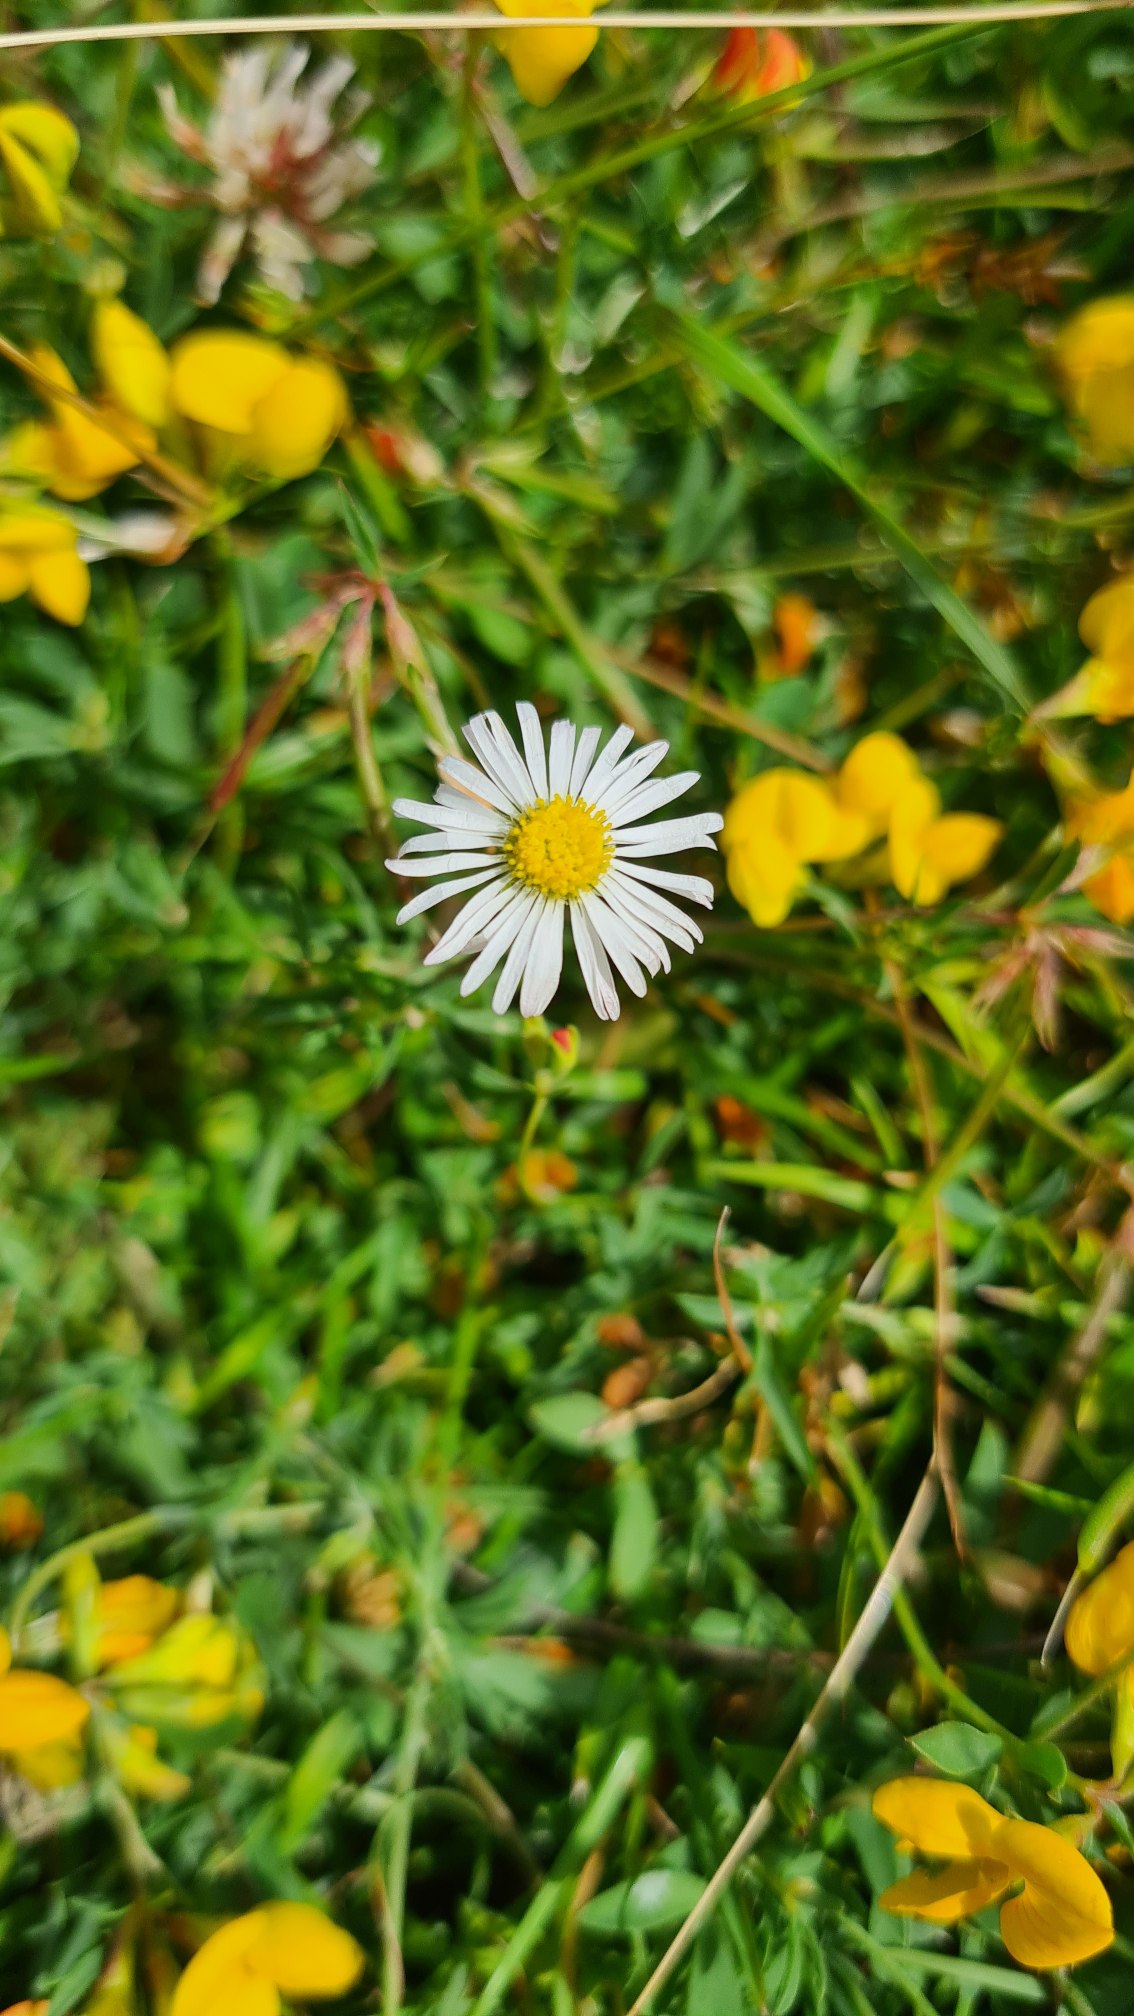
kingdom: Plantae
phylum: Tracheophyta
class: Magnoliopsida
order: Asterales
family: Asteraceae
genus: Bellis
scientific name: Bellis perennis
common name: Tusindfryd
